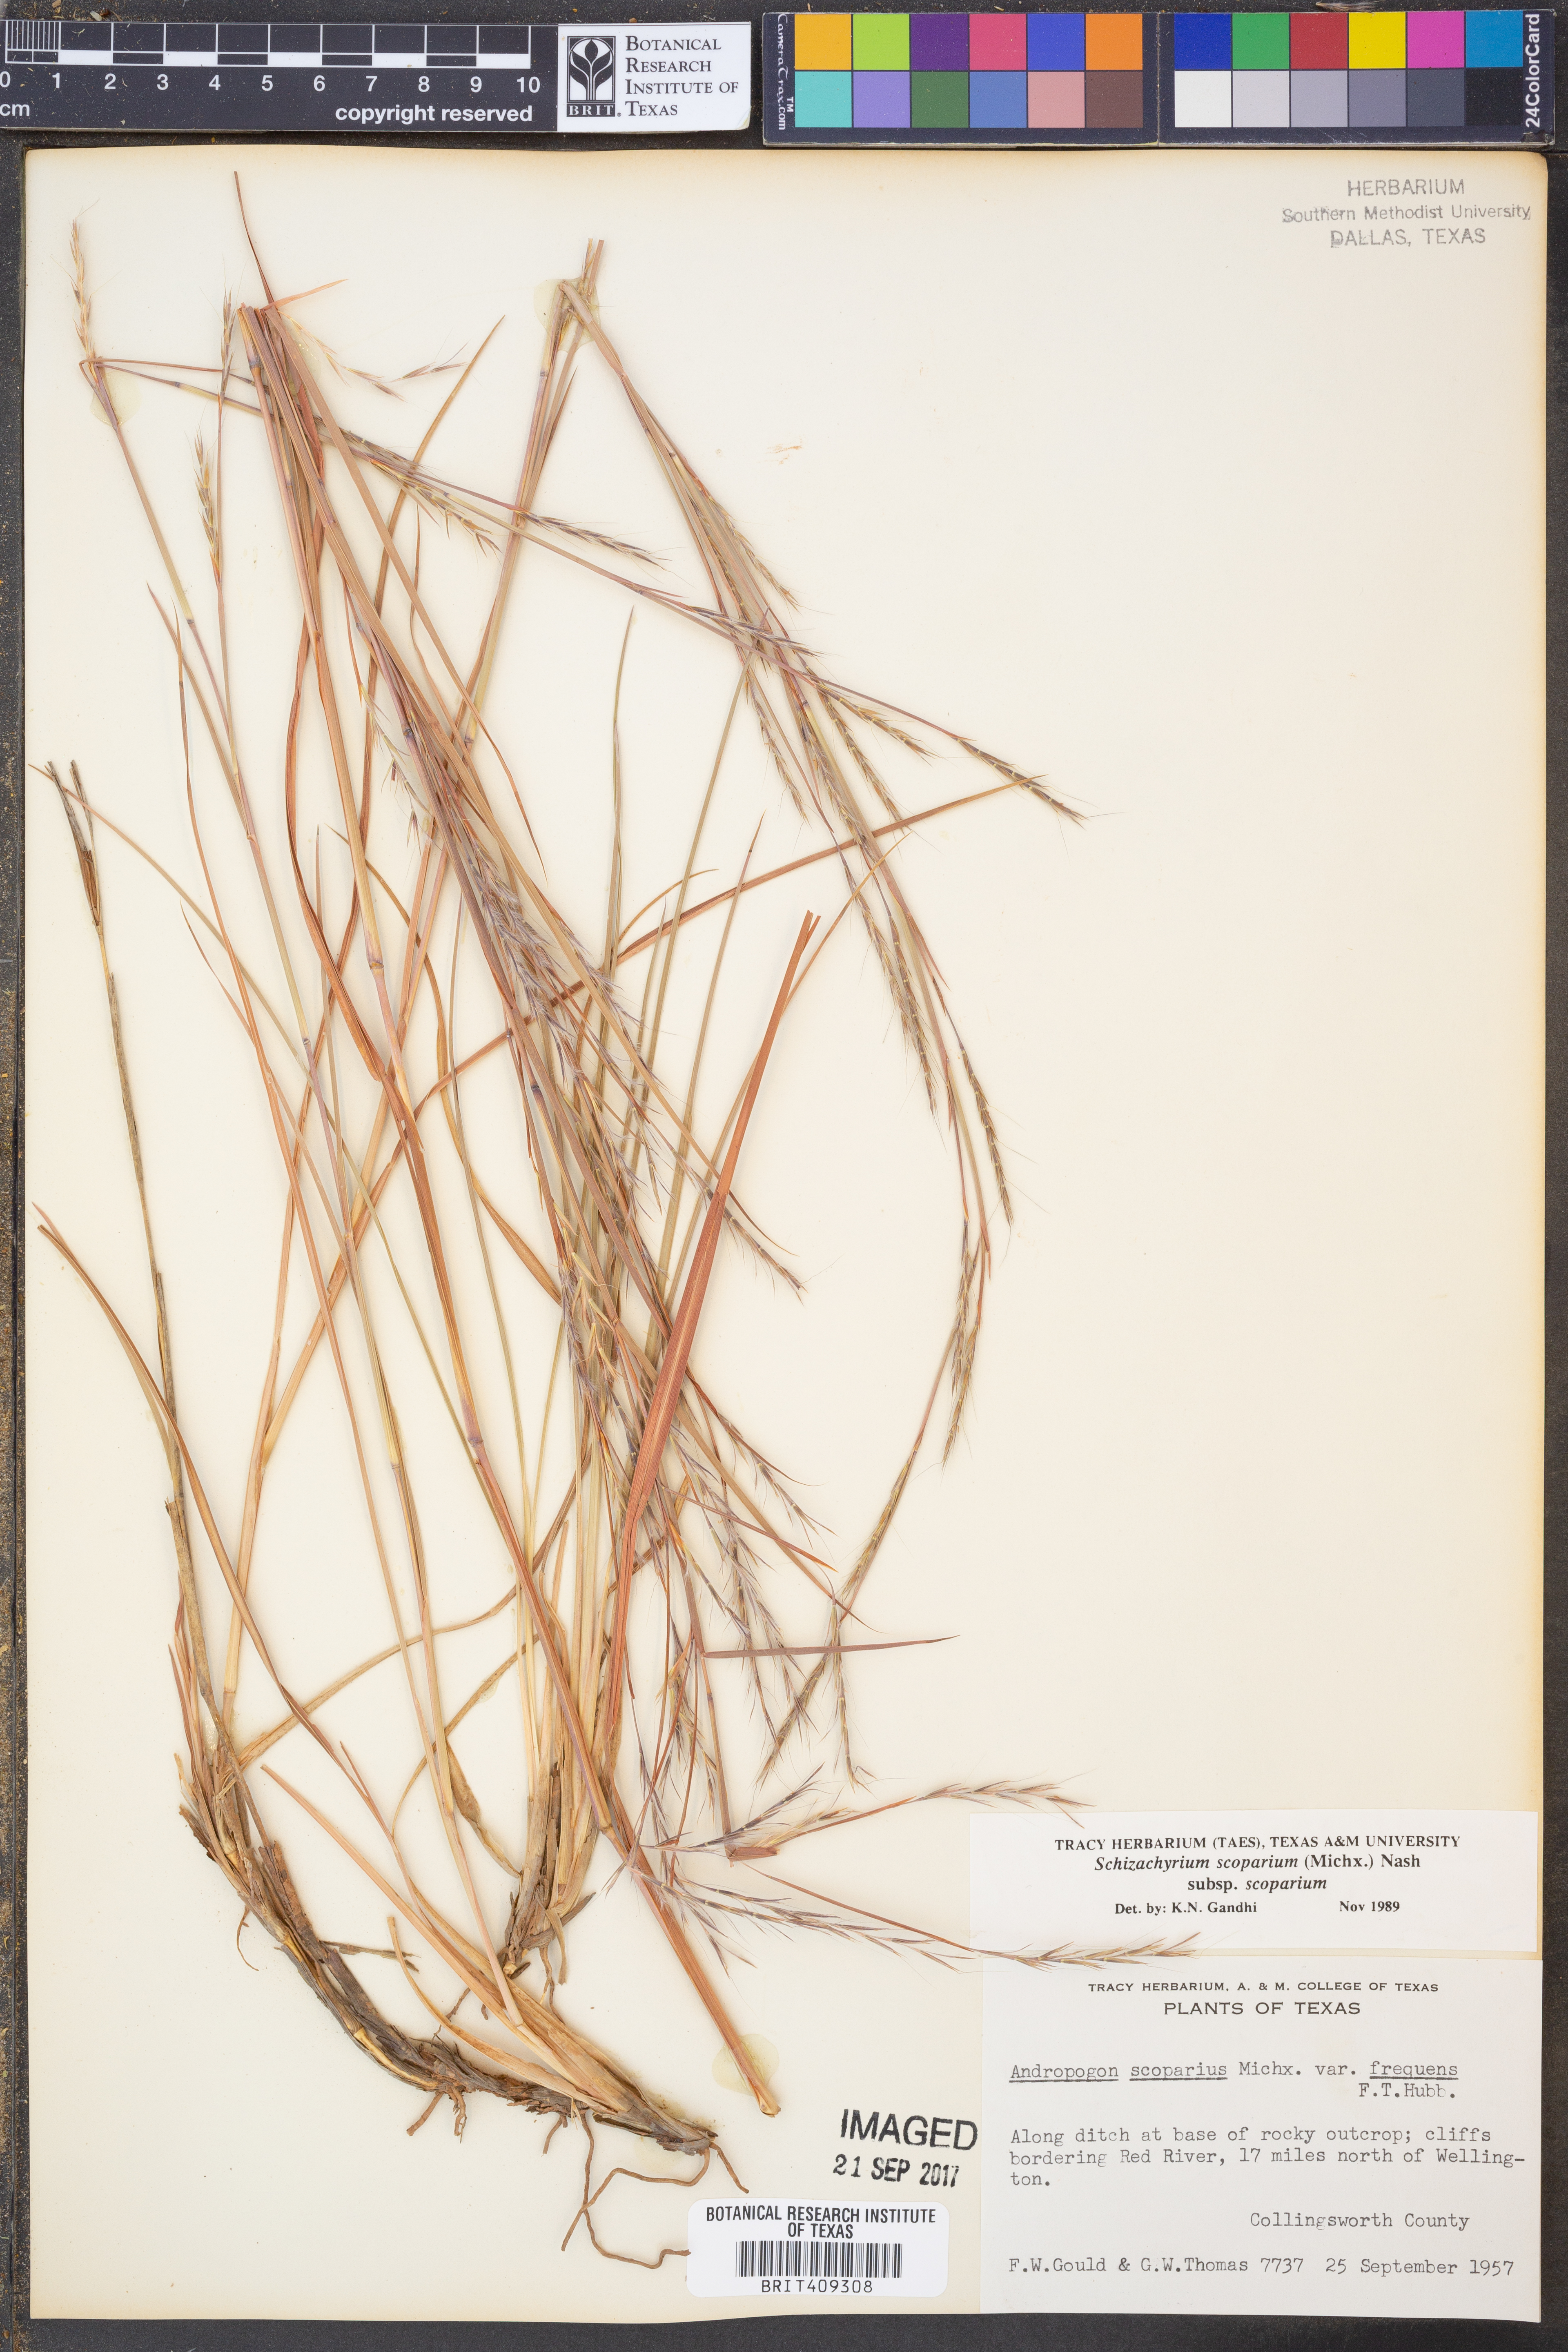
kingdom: Plantae
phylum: Tracheophyta
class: Liliopsida
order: Poales
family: Poaceae
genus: Schizachyrium
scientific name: Schizachyrium scoparium
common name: Little bluestem
